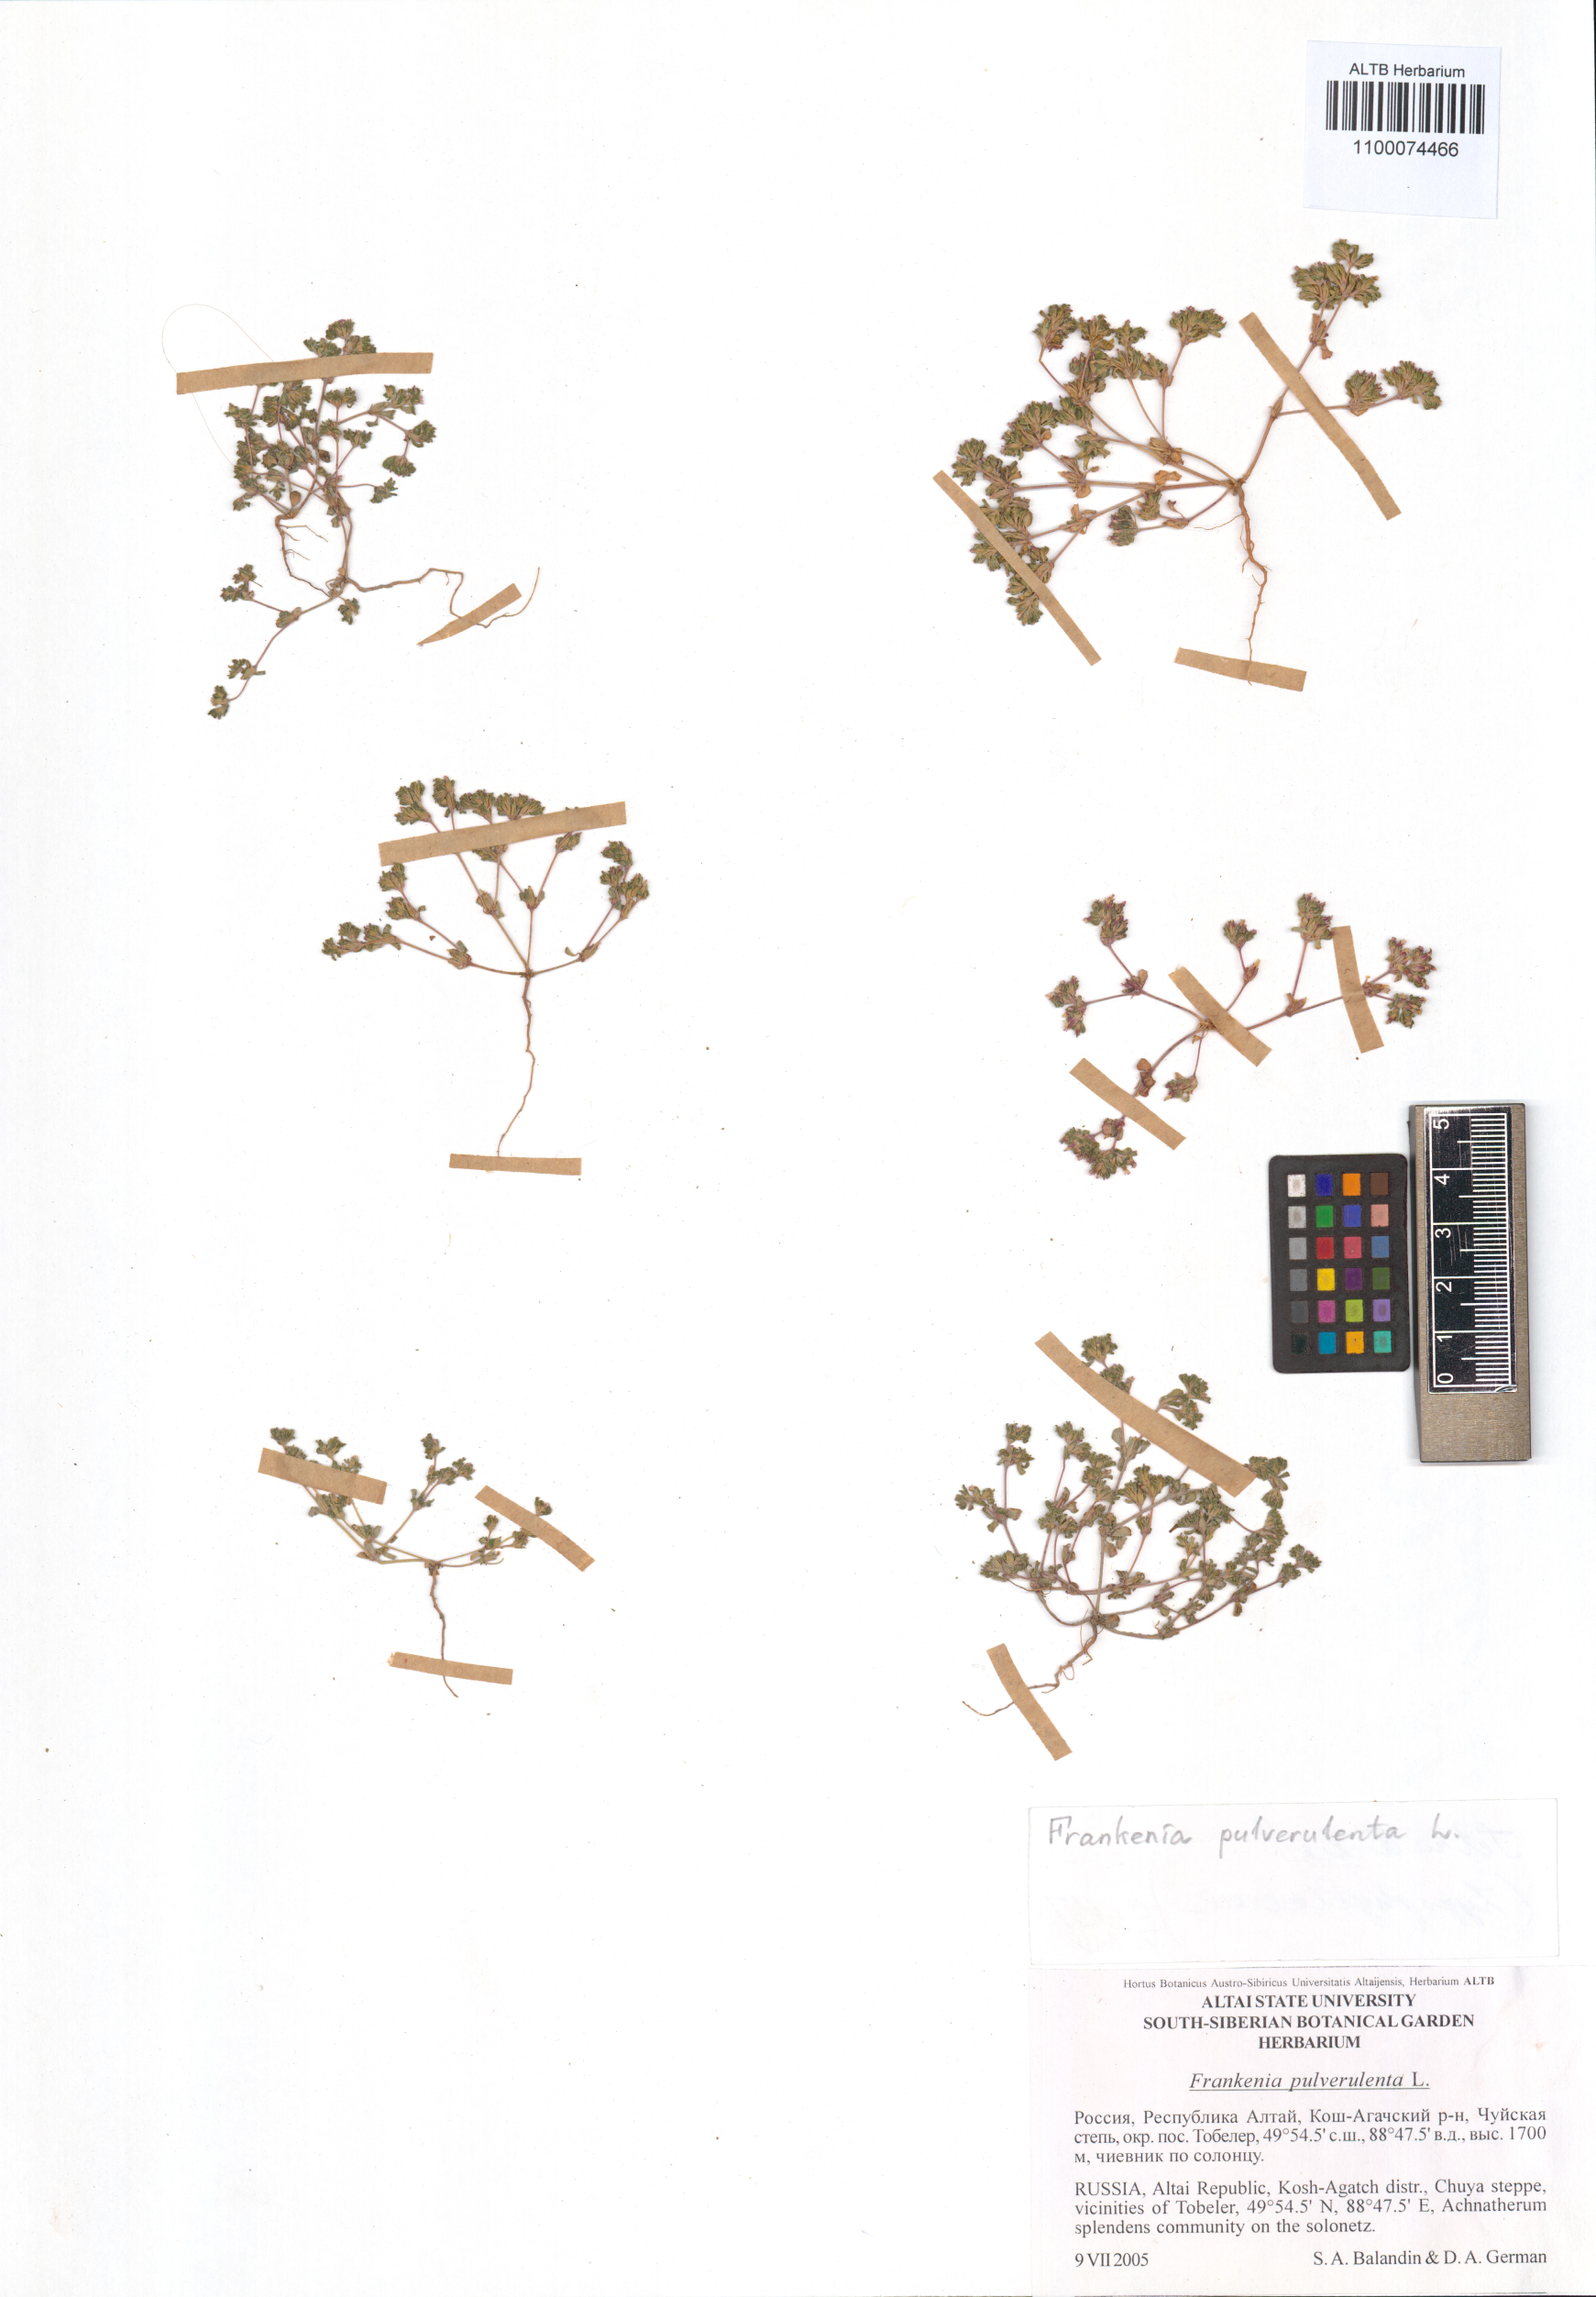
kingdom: Plantae
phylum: Tracheophyta
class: Magnoliopsida
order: Caryophyllales
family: Frankeniaceae
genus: Frankenia
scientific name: Frankenia pulverulenta
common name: European seaheath
